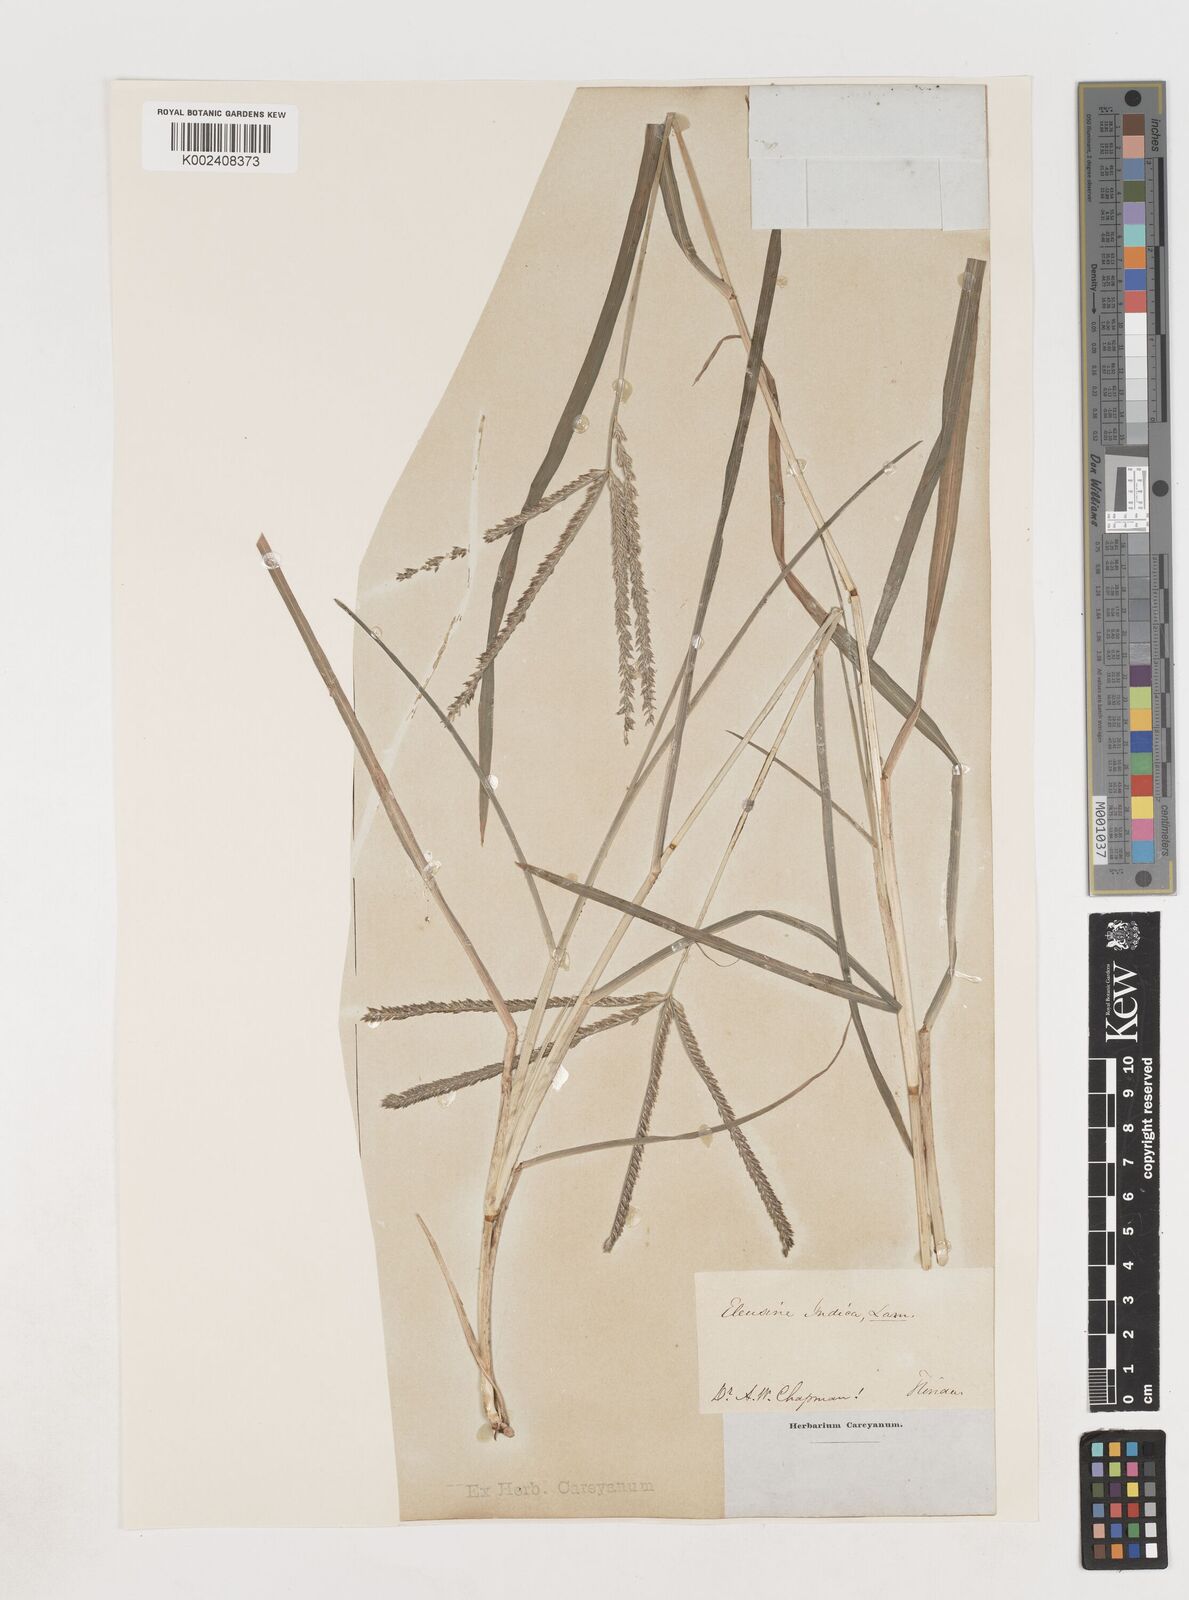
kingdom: Plantae
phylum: Tracheophyta
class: Liliopsida
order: Poales
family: Poaceae
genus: Eleusine
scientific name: Eleusine indica
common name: Yard-grass
